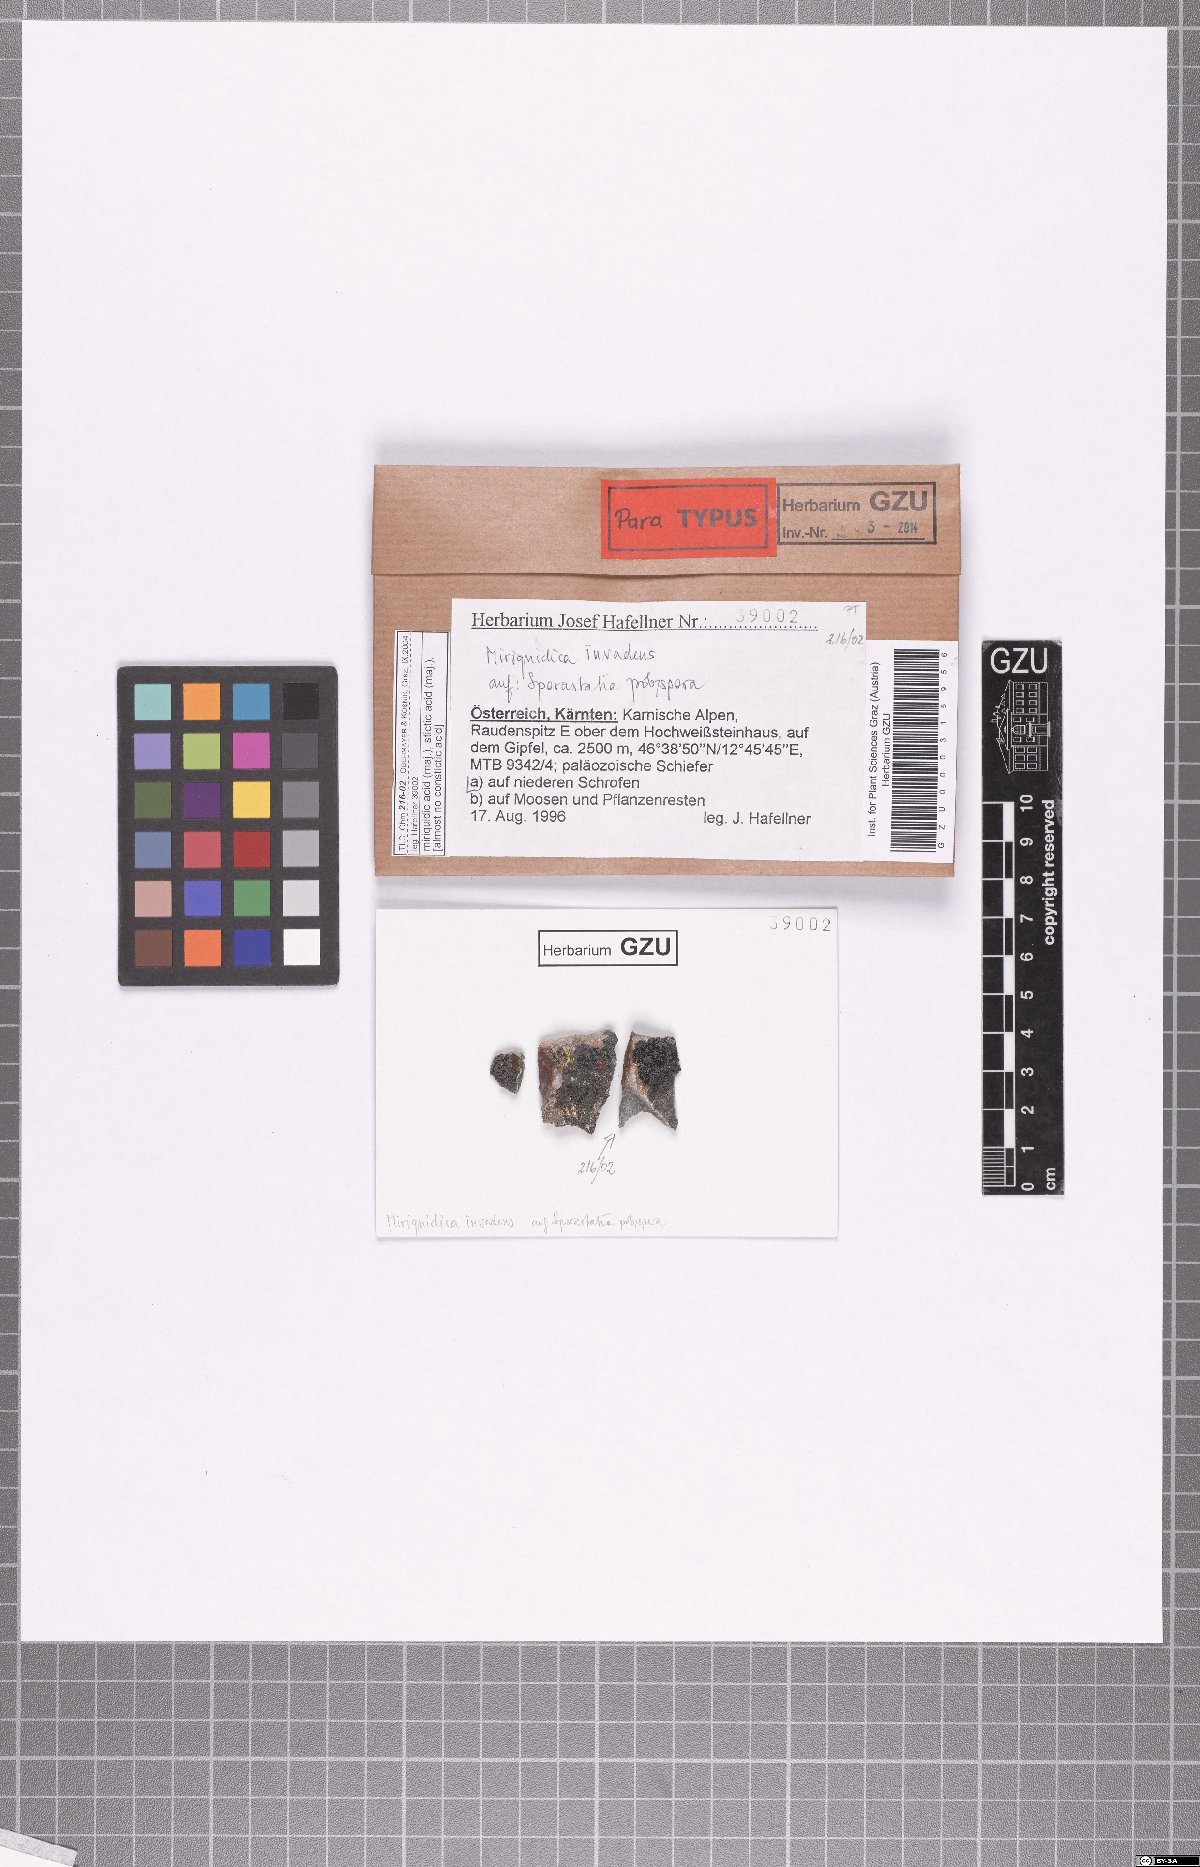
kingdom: Fungi
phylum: Ascomycota
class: Lecanoromycetes
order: Lecanorales
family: Lecanoraceae
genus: Miriquidica
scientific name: Miriquidica invadens
